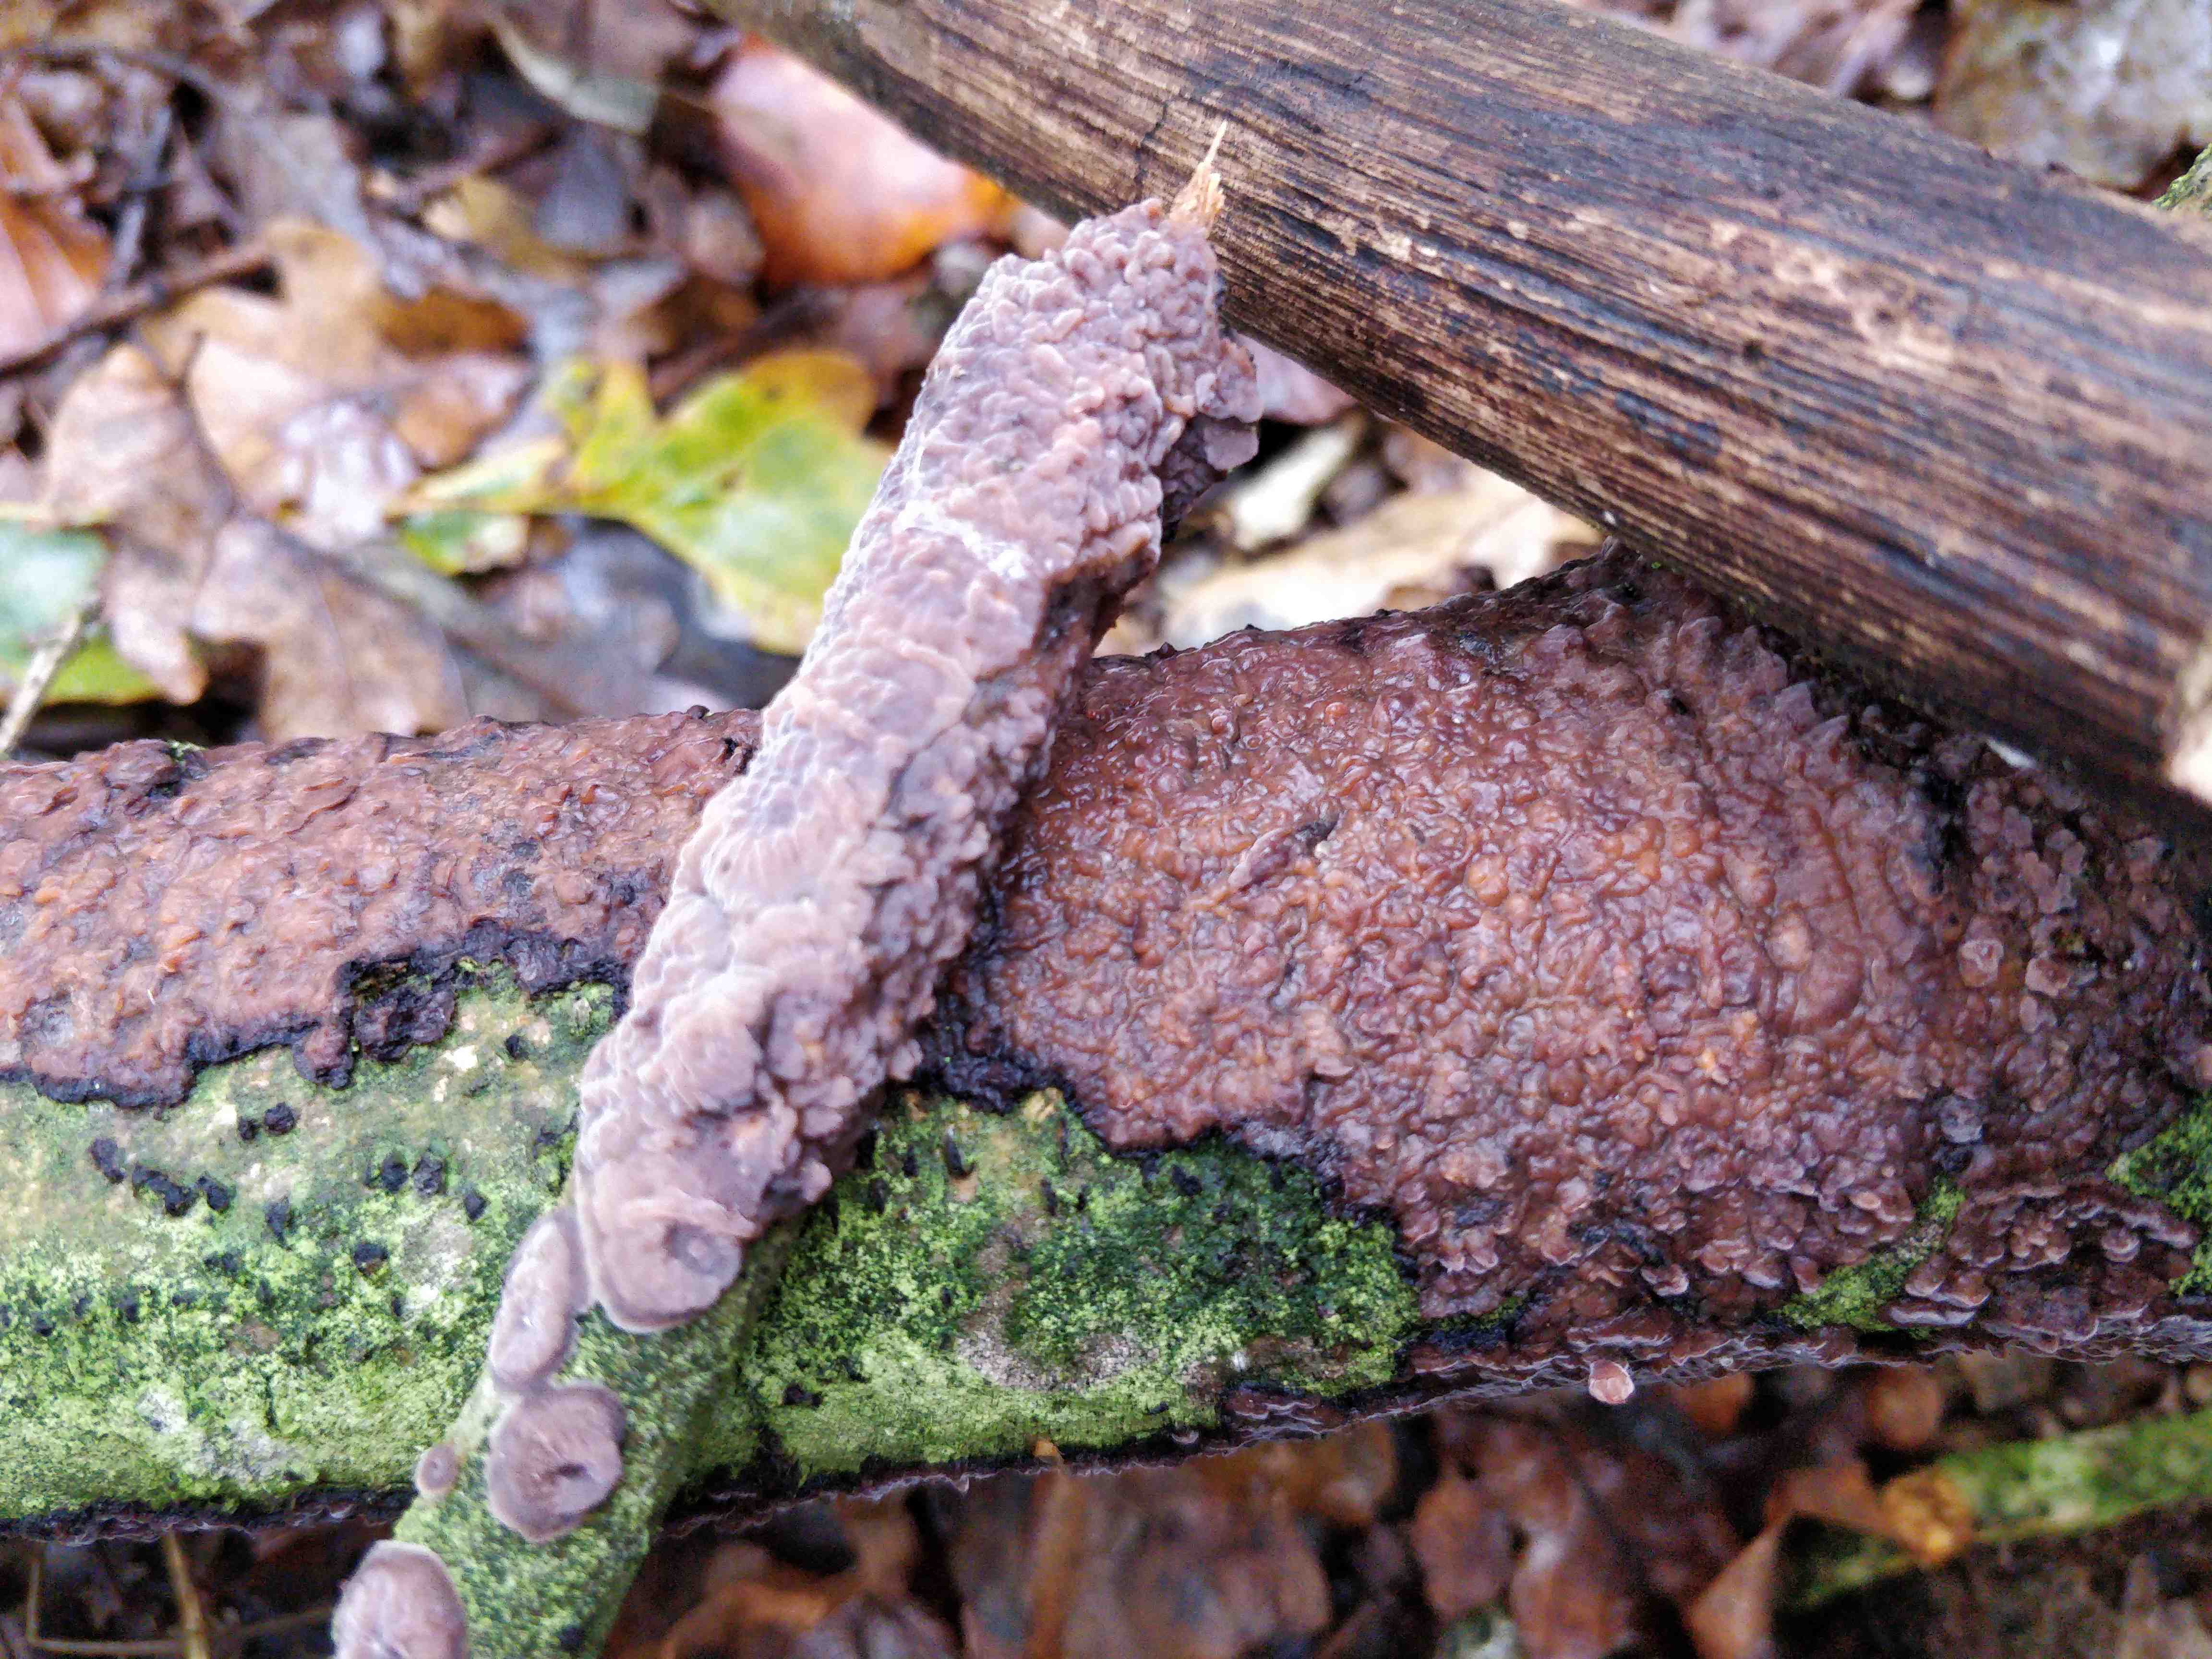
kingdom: Fungi
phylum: Basidiomycota
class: Agaricomycetes
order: Russulales
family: Peniophoraceae
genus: Peniophora
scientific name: Peniophora quercina
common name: ege-voksskind
